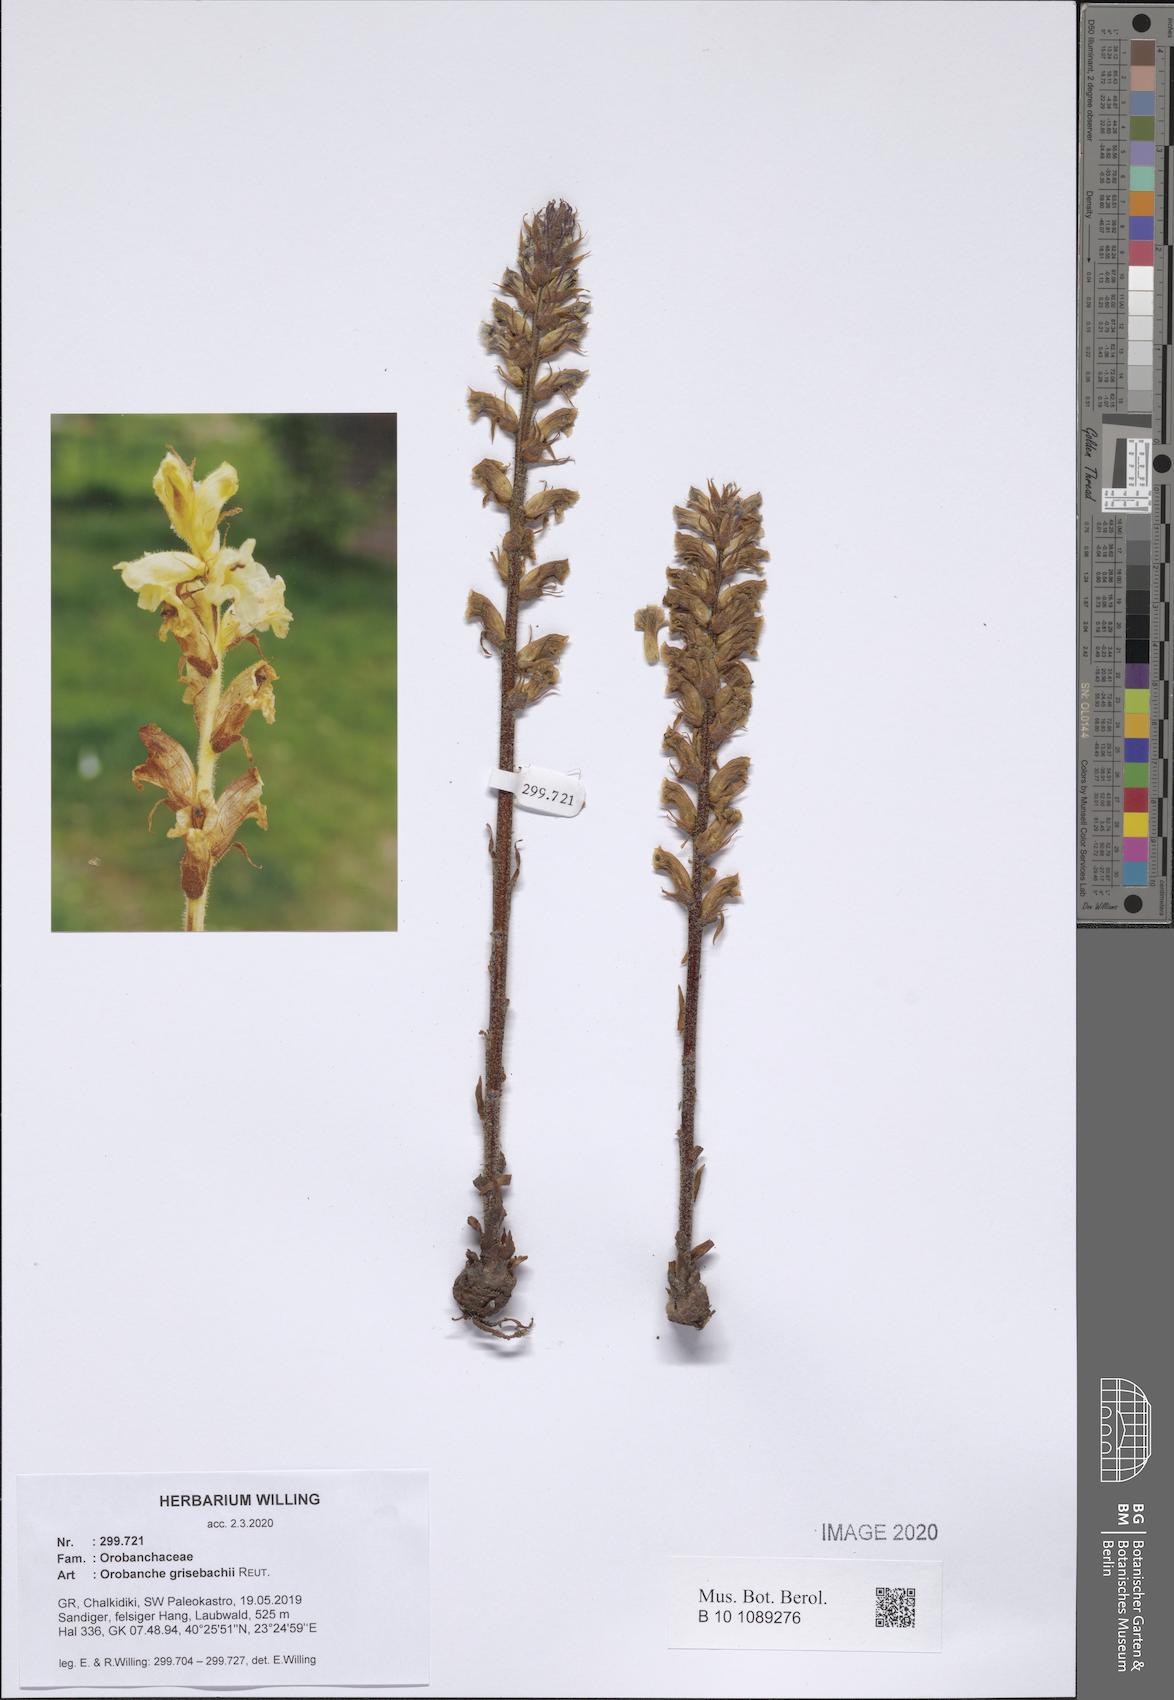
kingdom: Plantae
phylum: Tracheophyta
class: Magnoliopsida
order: Lamiales
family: Orobanchaceae
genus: Orobanche
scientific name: Orobanche grisebachii
